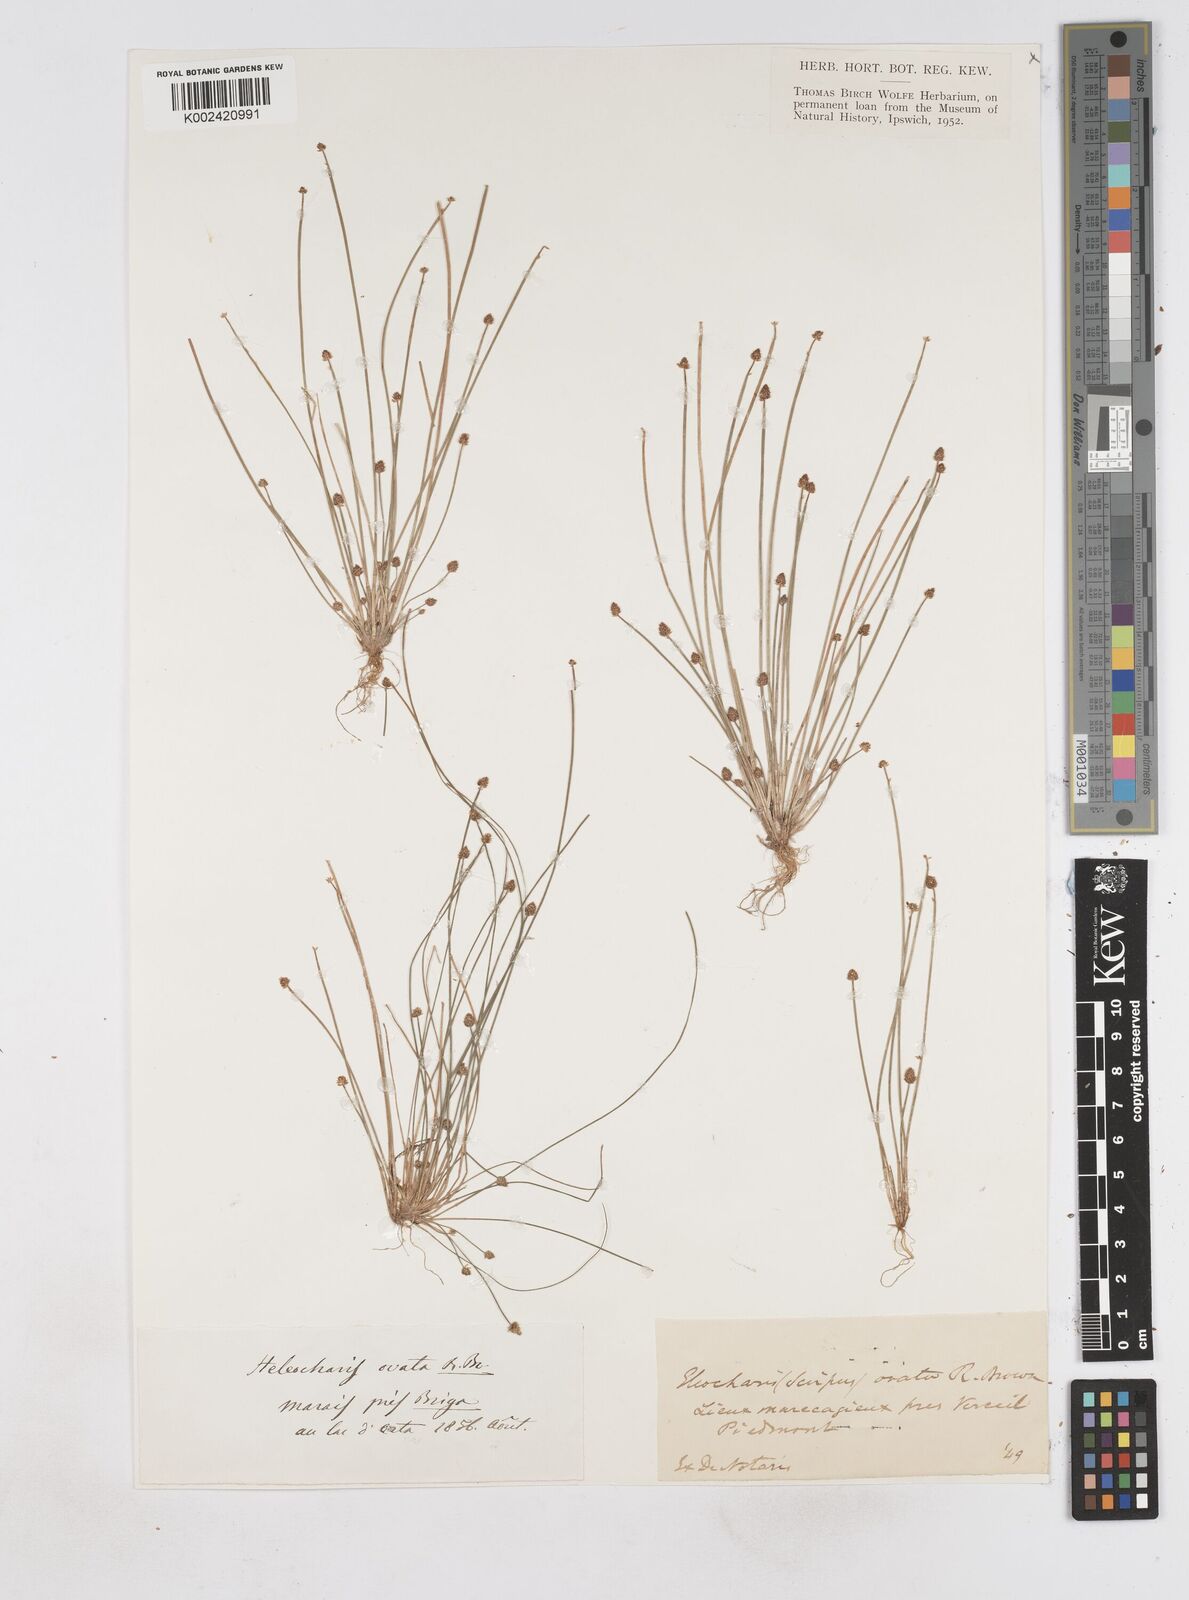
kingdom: Plantae
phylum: Tracheophyta
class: Liliopsida
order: Poales
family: Cyperaceae
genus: Eleocharis
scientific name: Eleocharis ovata
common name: Oval spike-rush
